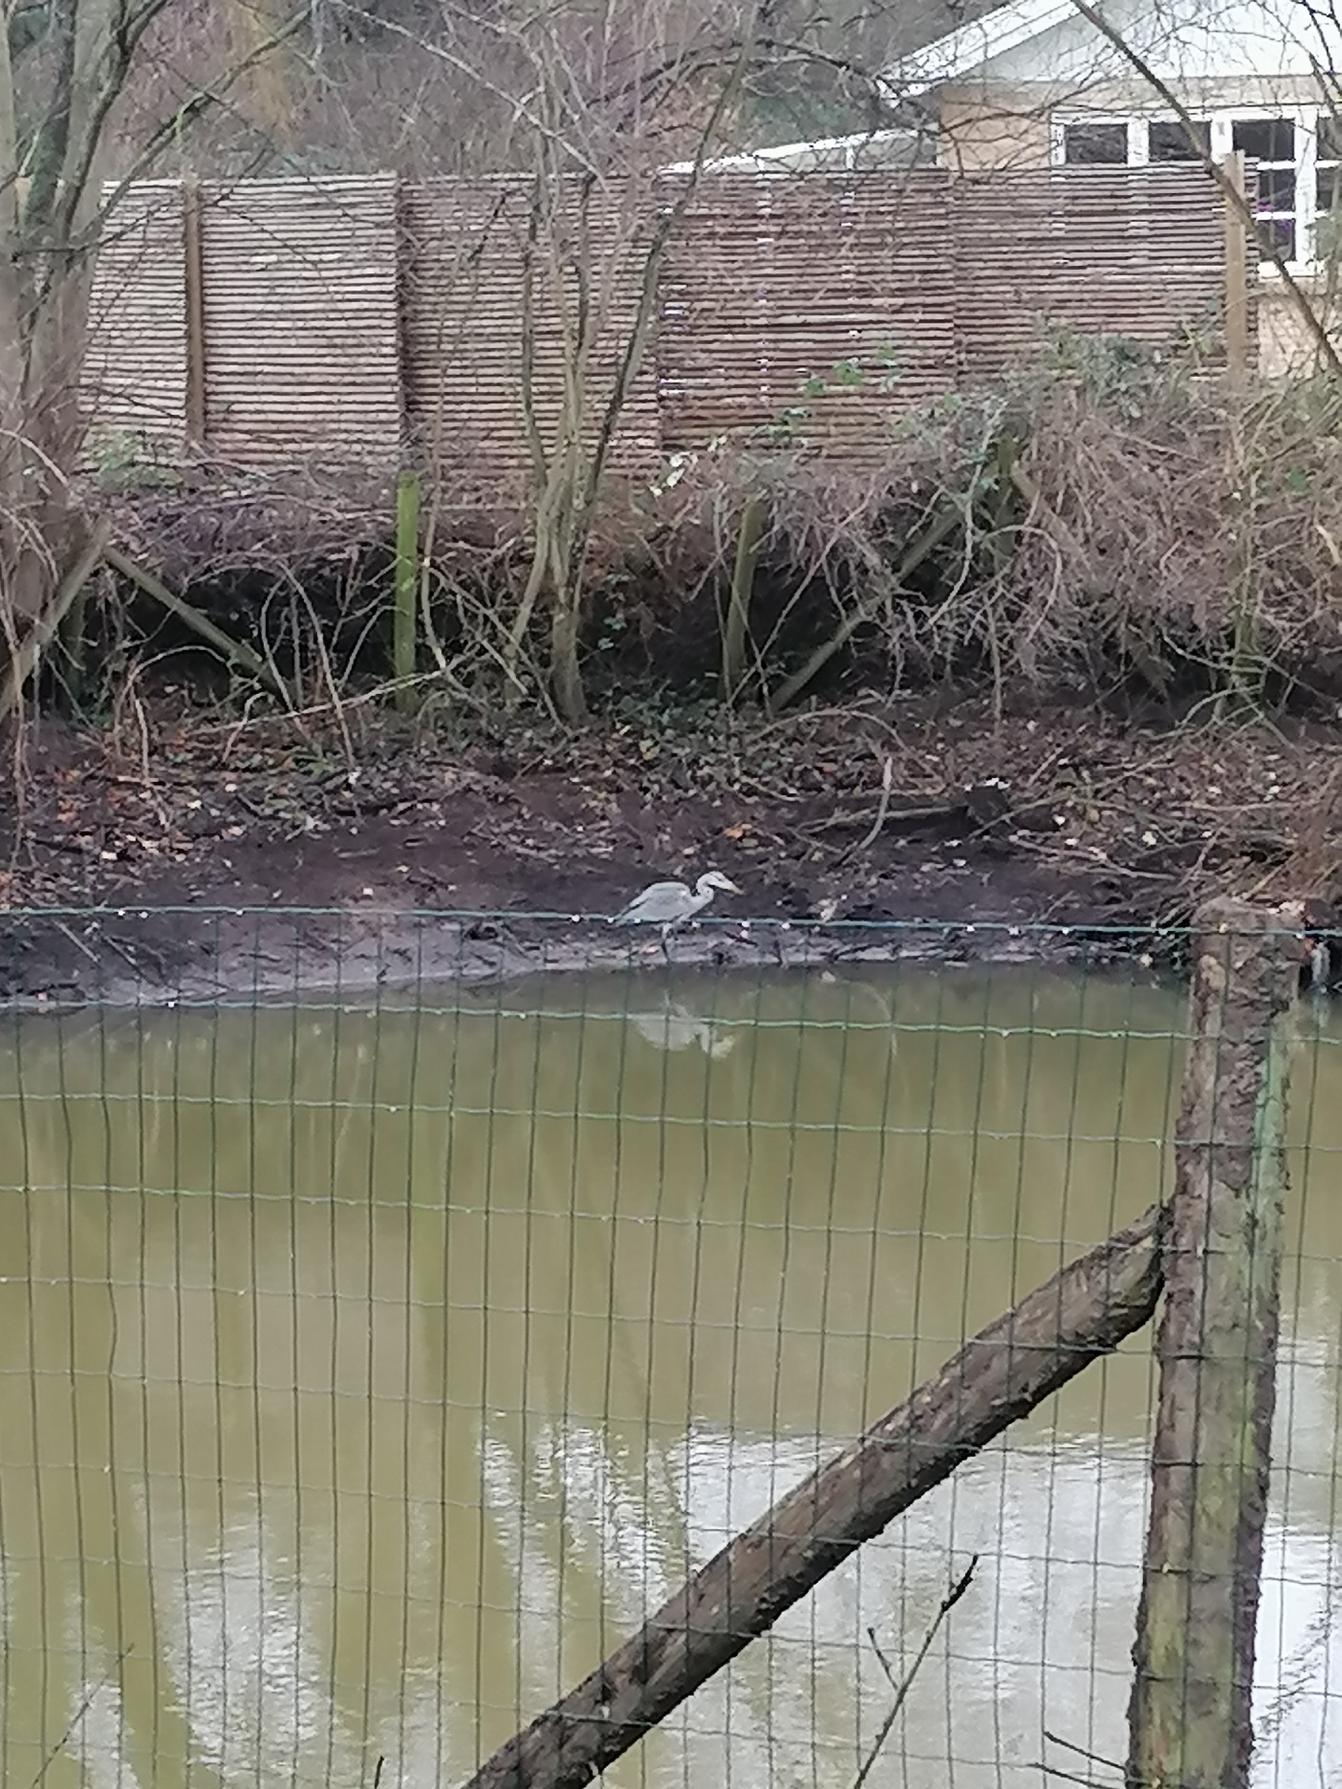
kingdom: Animalia
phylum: Chordata
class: Aves
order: Pelecaniformes
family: Ardeidae
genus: Ardea
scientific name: Ardea cinerea
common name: Fiskehejre
